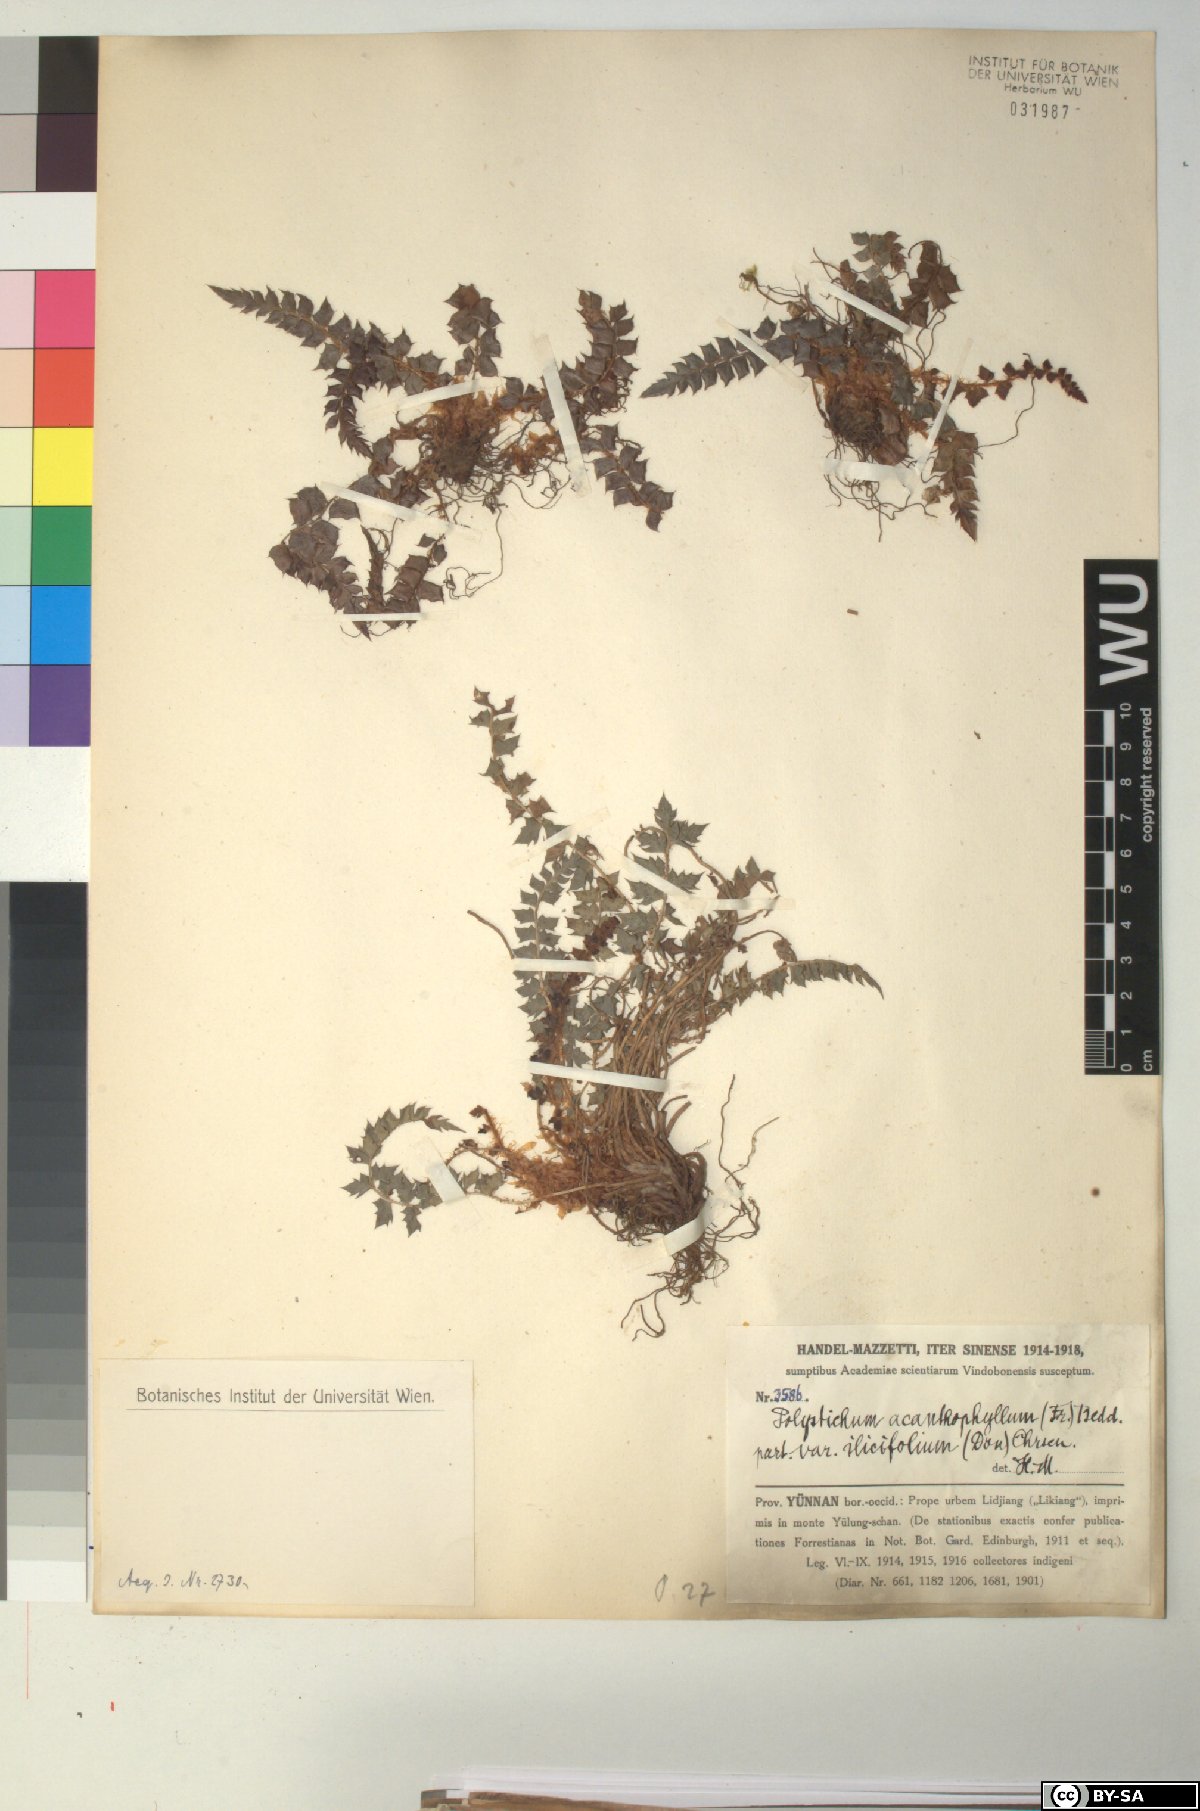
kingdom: Plantae
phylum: Tracheophyta
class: Polypodiopsida
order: Polypodiales
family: Dryopteridaceae
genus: Polystichum
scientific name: Polystichum acanthophyllum
